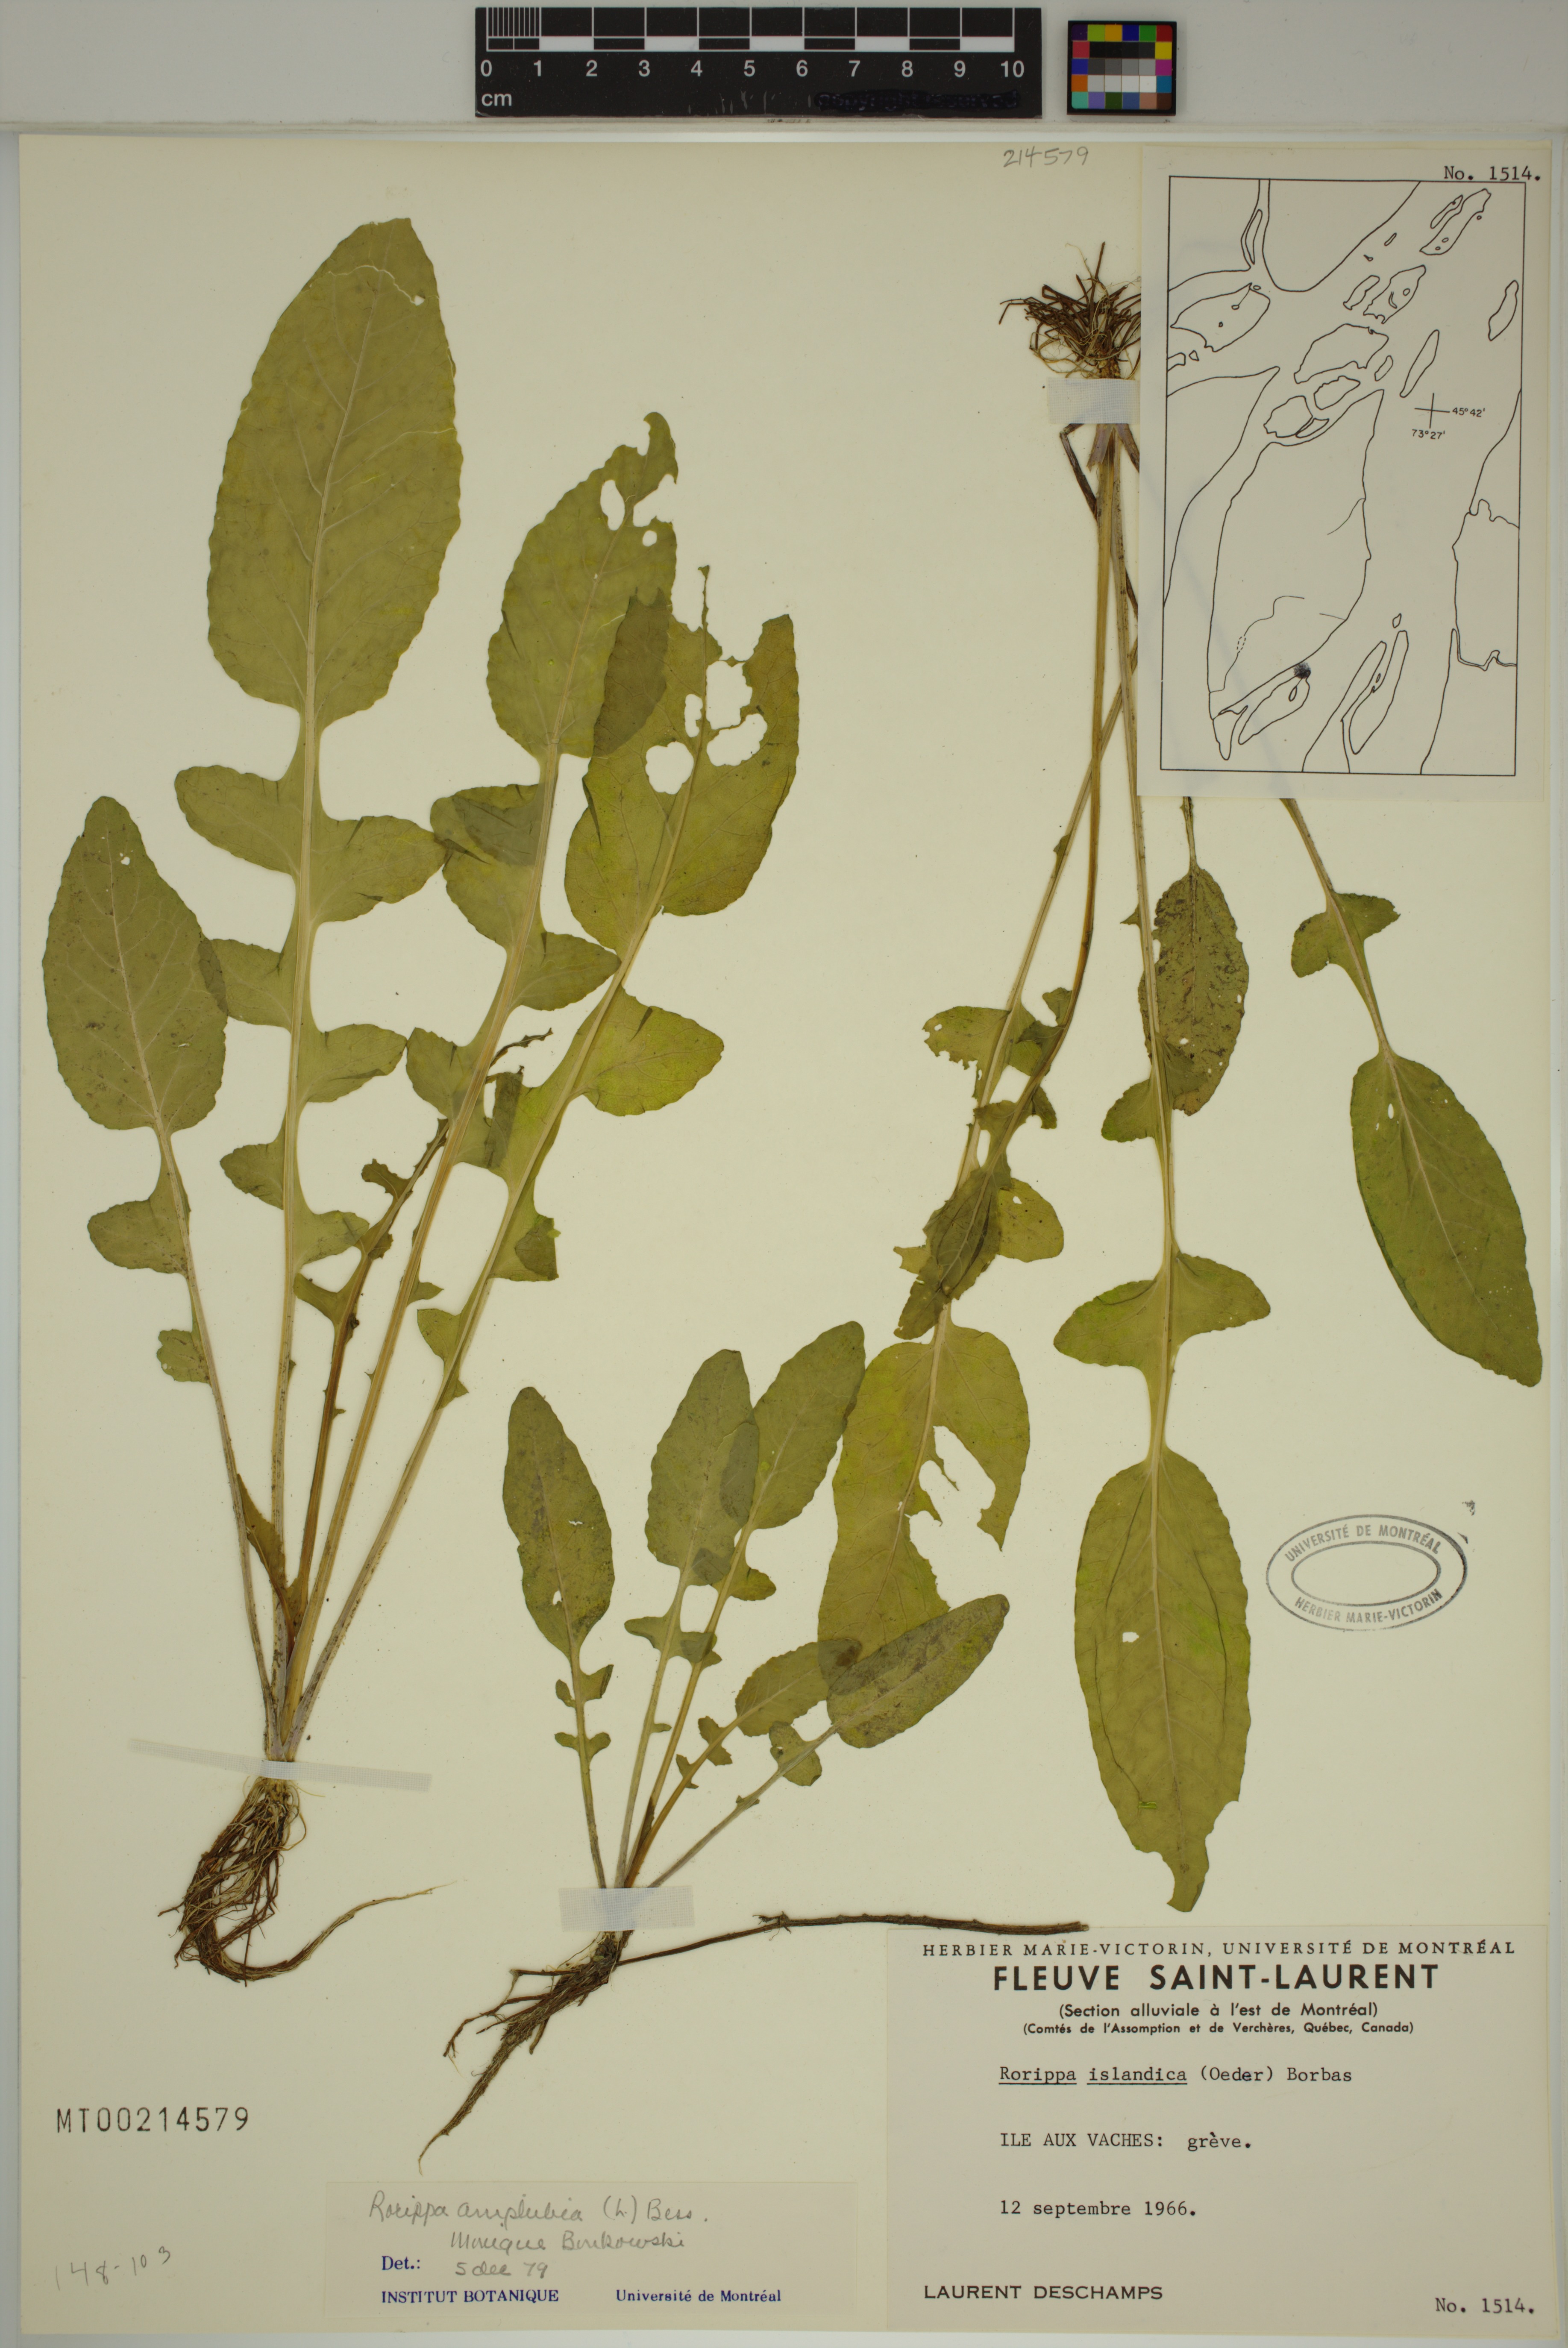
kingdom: Plantae
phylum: Tracheophyta
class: Magnoliopsida
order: Brassicales
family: Brassicaceae
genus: Rorippa
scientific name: Rorippa amphibia
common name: Great yellow-cress
